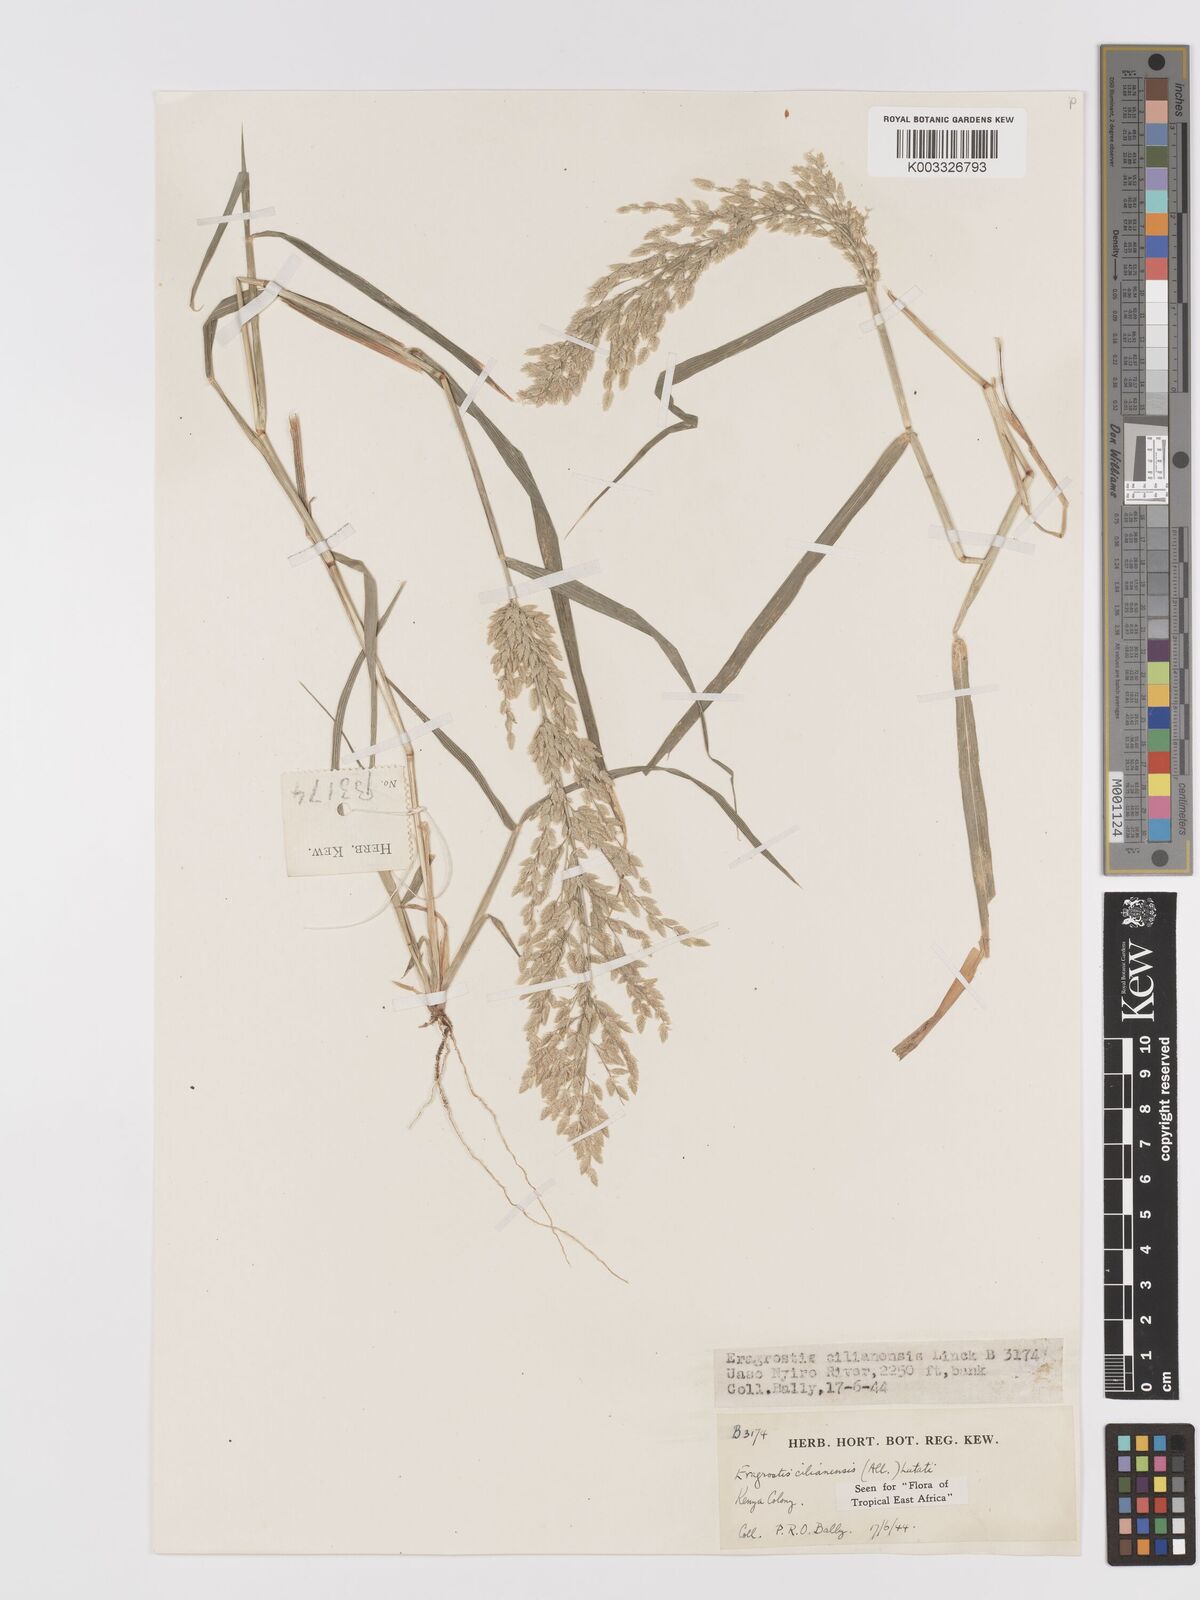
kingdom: Plantae
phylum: Tracheophyta
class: Liliopsida
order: Poales
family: Poaceae
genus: Eragrostis
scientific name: Eragrostis cilianensis
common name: Stinkgrass
